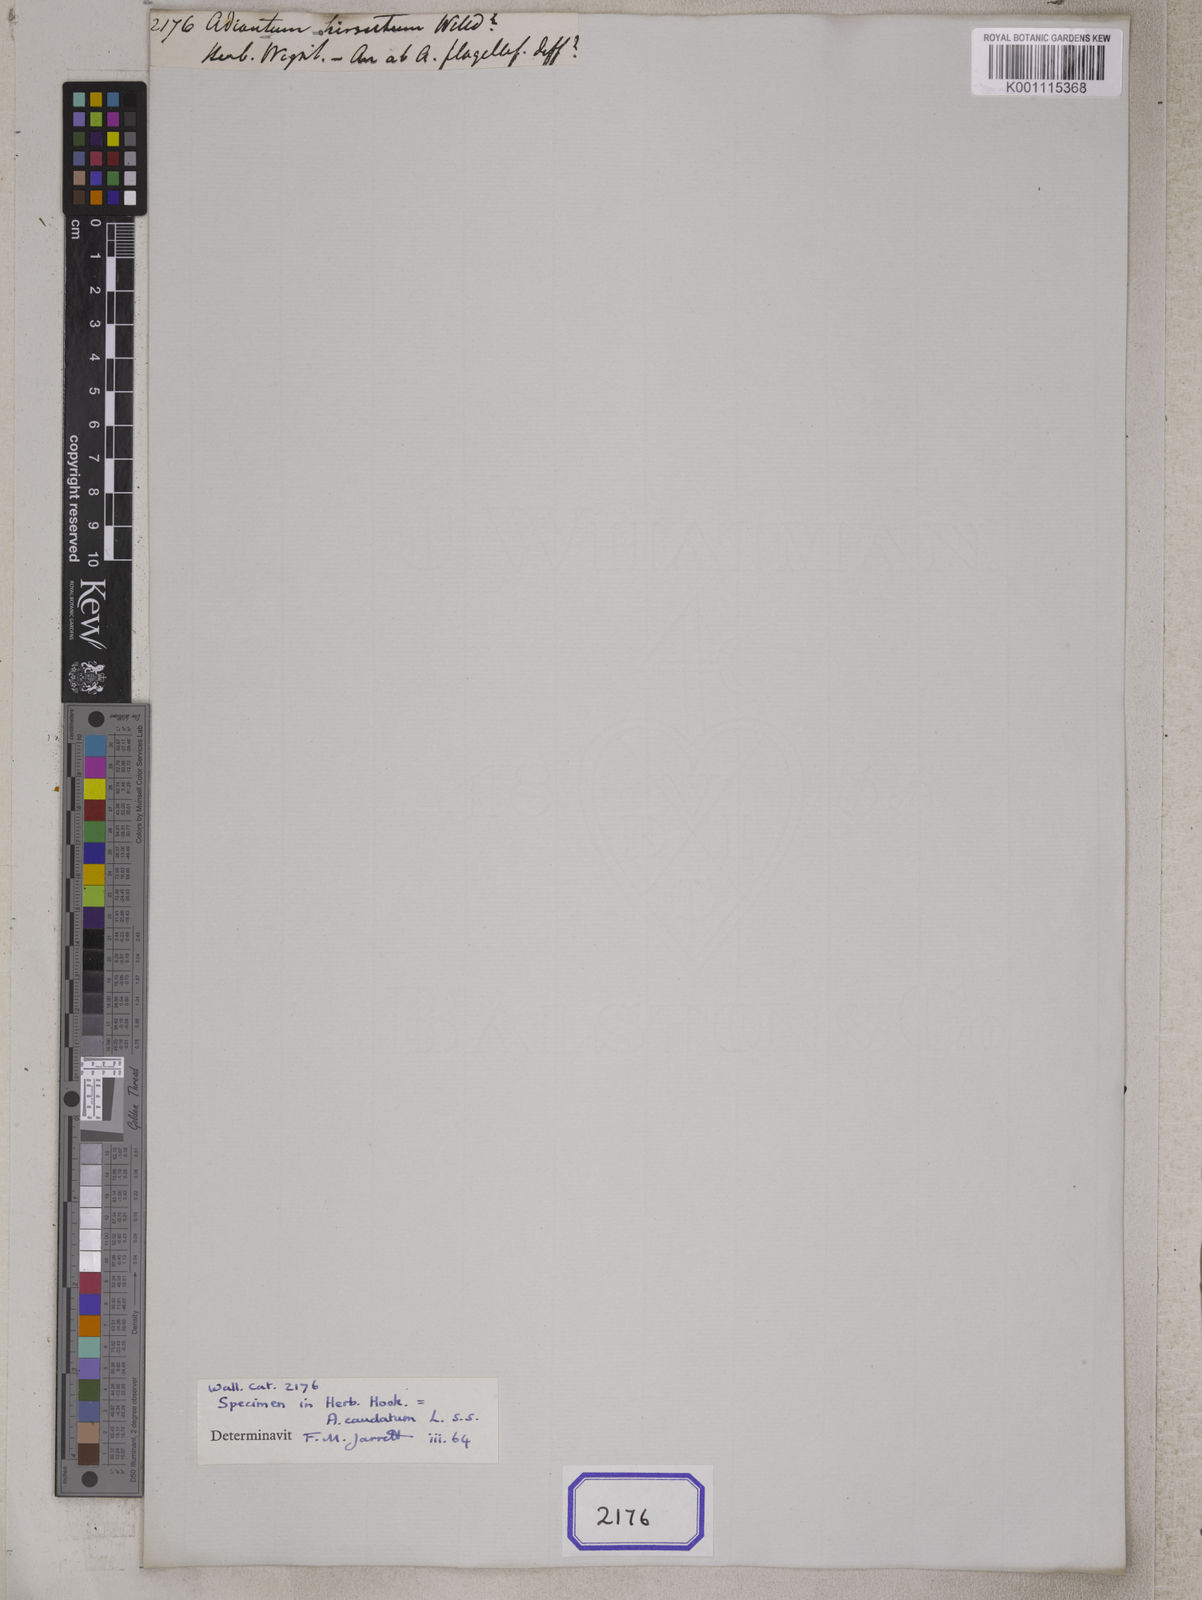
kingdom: Plantae
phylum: Tracheophyta
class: Polypodiopsida
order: Polypodiales
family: Pteridaceae
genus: Adiantum
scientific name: Adiantum hirsutum
